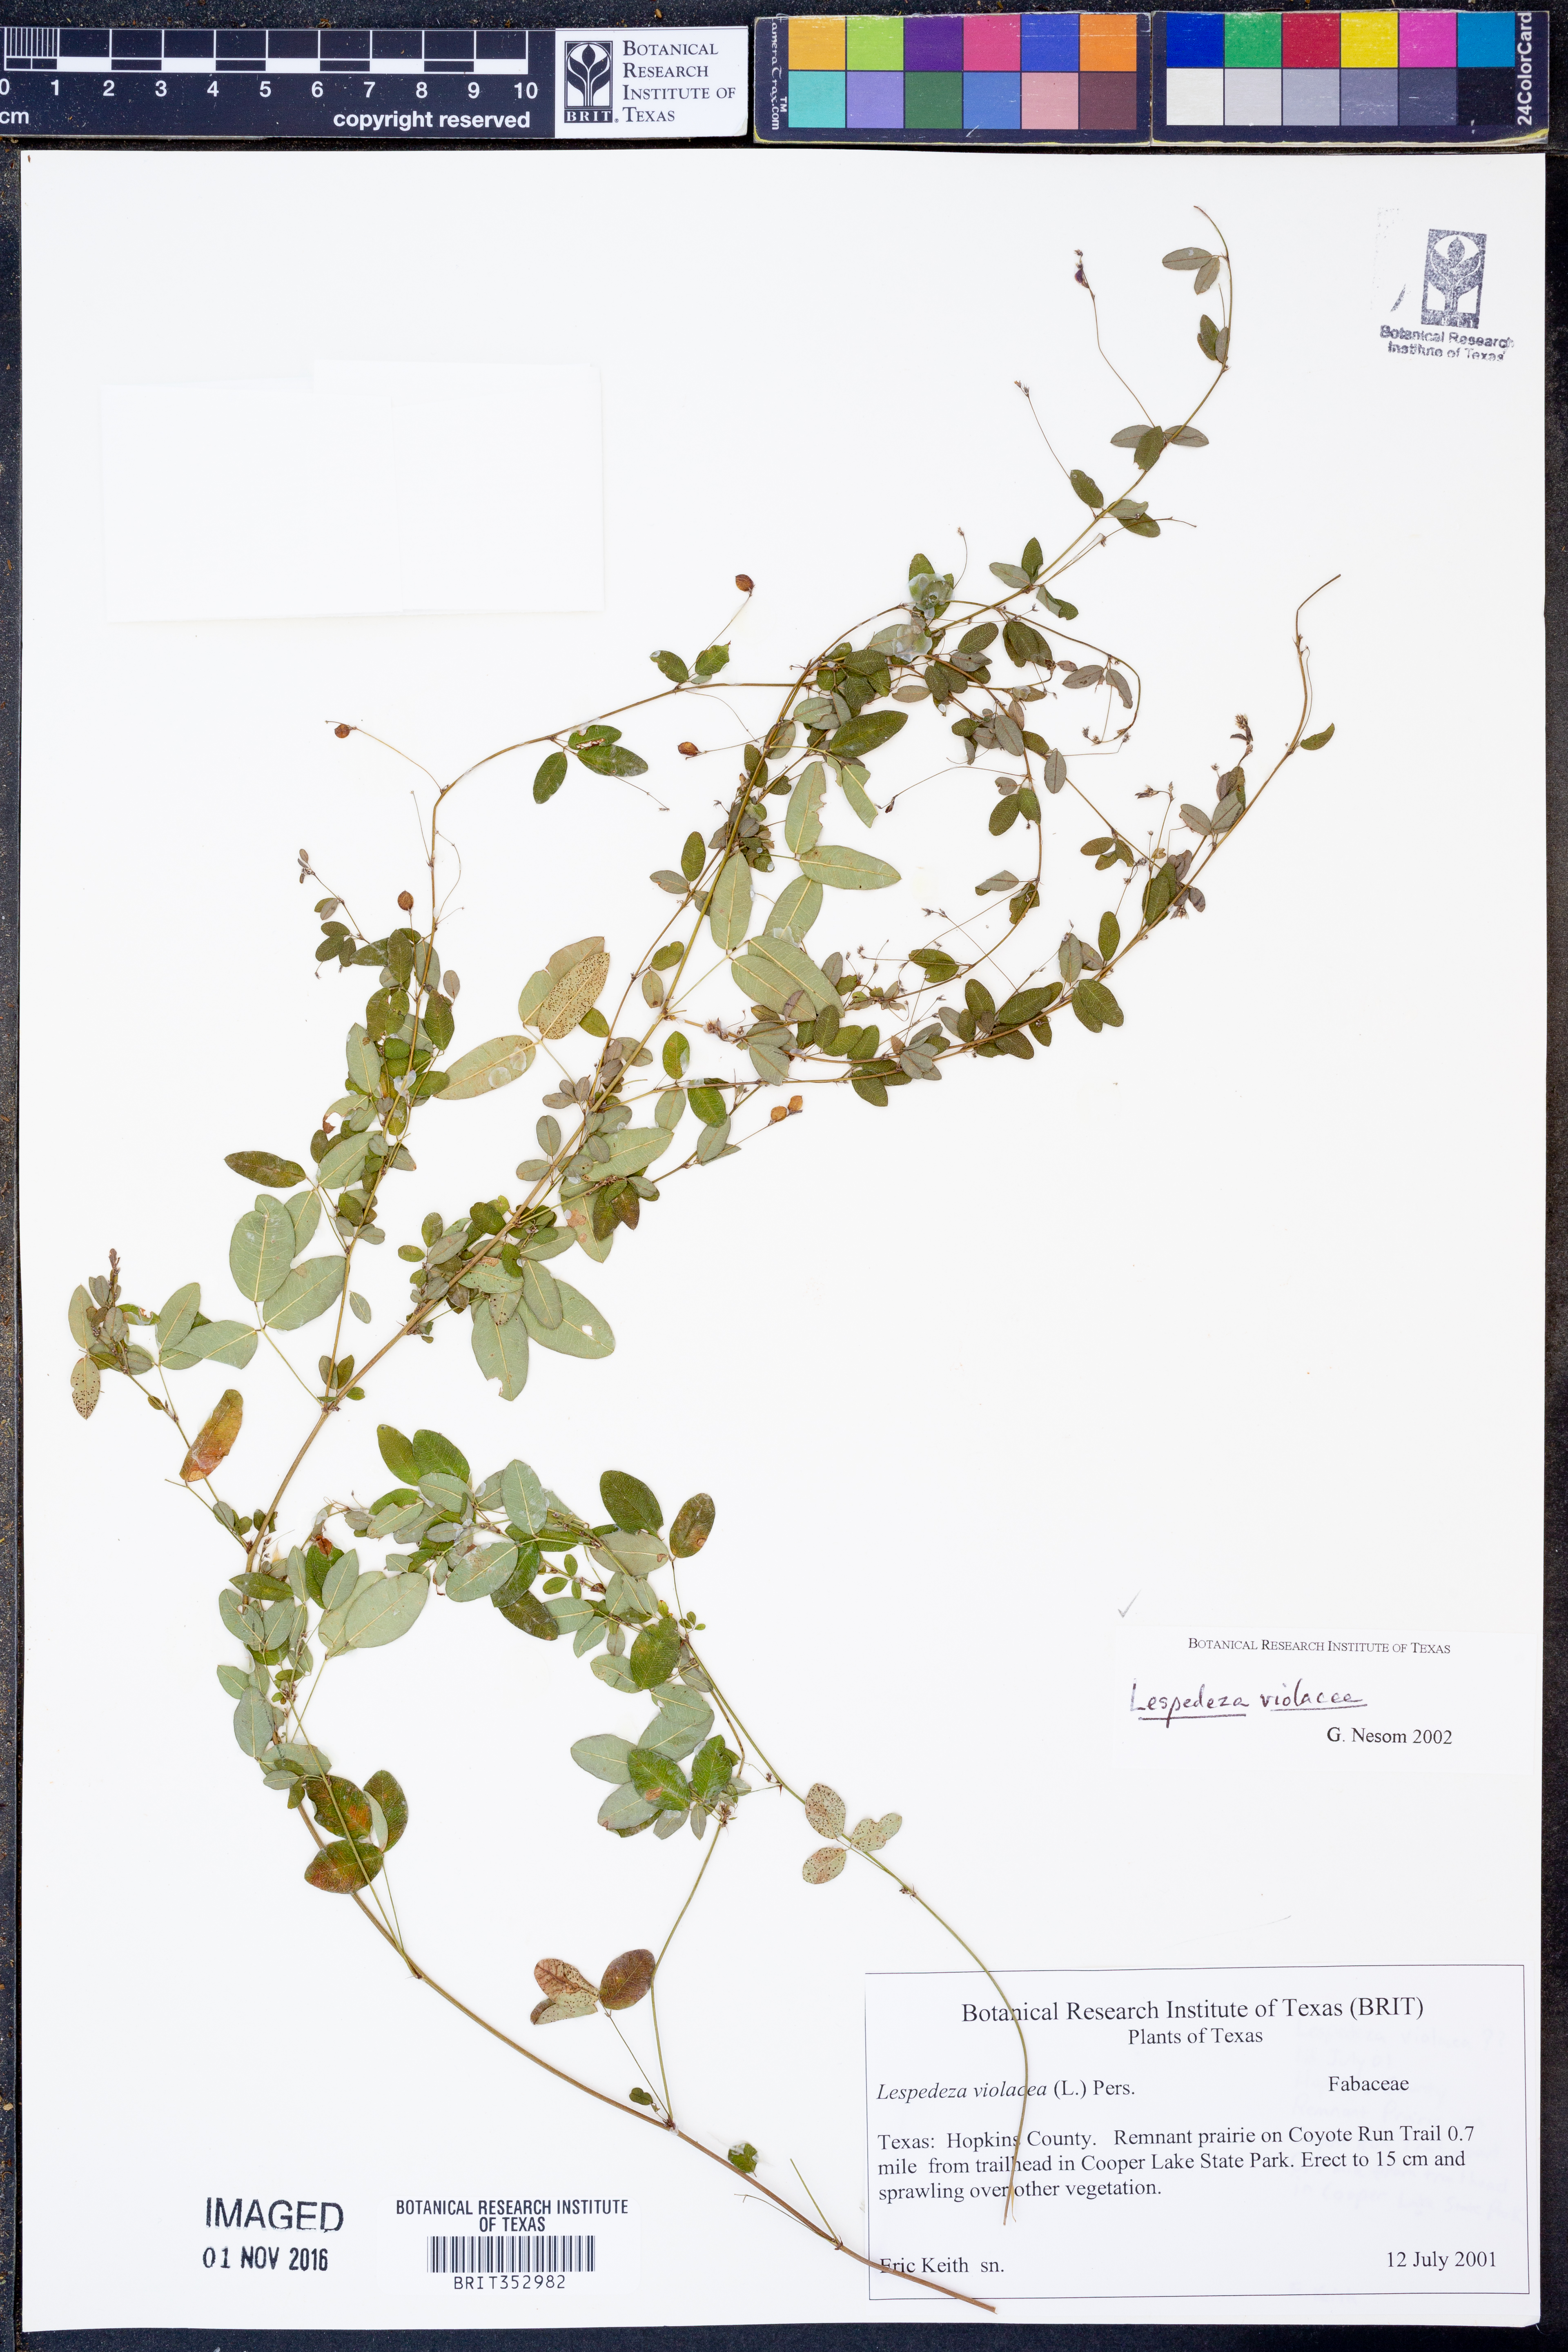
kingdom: Plantae
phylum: Tracheophyta
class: Magnoliopsida
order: Fabales
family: Fabaceae
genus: Lespedeza
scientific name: Lespedeza violacea
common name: Wand bush-clover
